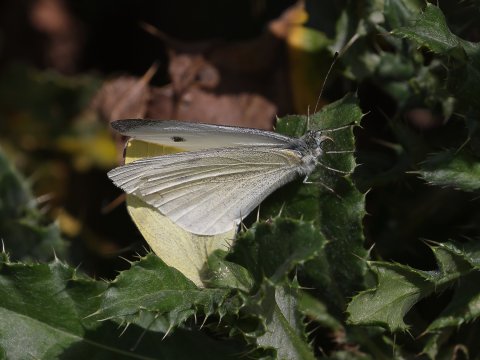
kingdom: Animalia
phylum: Arthropoda
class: Insecta
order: Lepidoptera
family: Pieridae
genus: Pieris
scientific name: Pieris rapae
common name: Cabbage White
